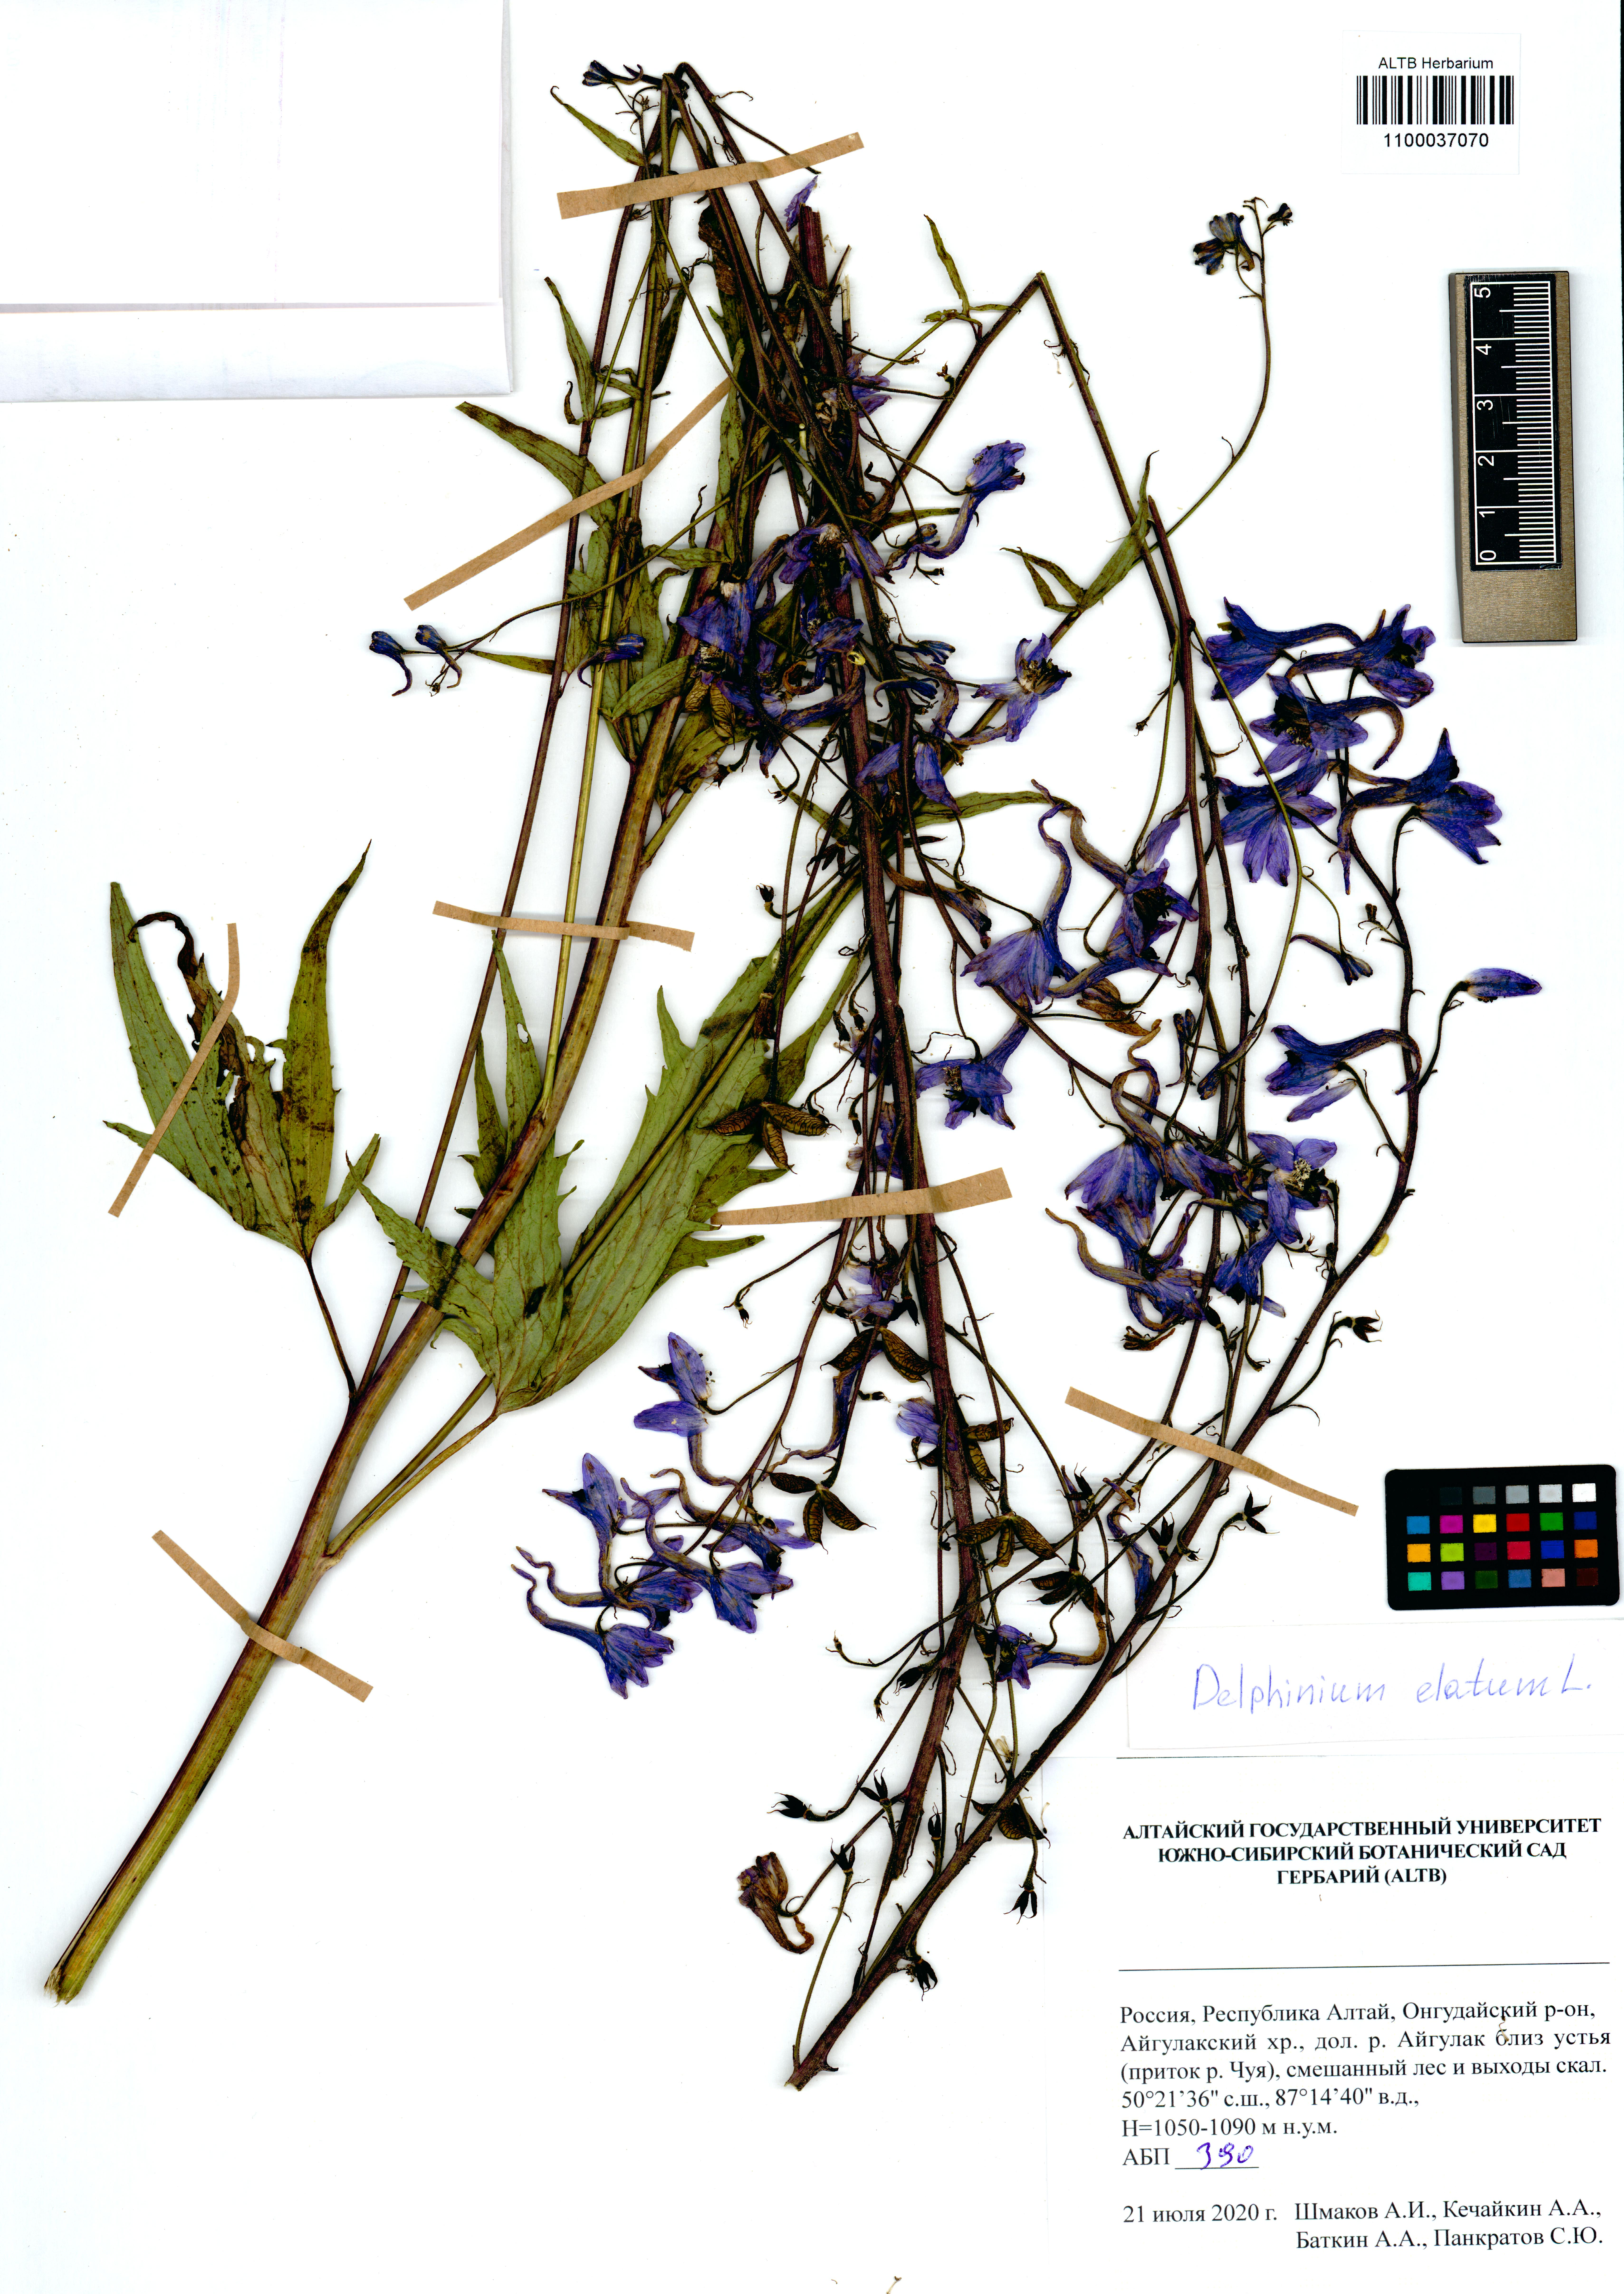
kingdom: Plantae
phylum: Tracheophyta
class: Magnoliopsida
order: Ranunculales
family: Ranunculaceae
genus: Delphinium
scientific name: Delphinium elatum
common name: Candle larkspur
